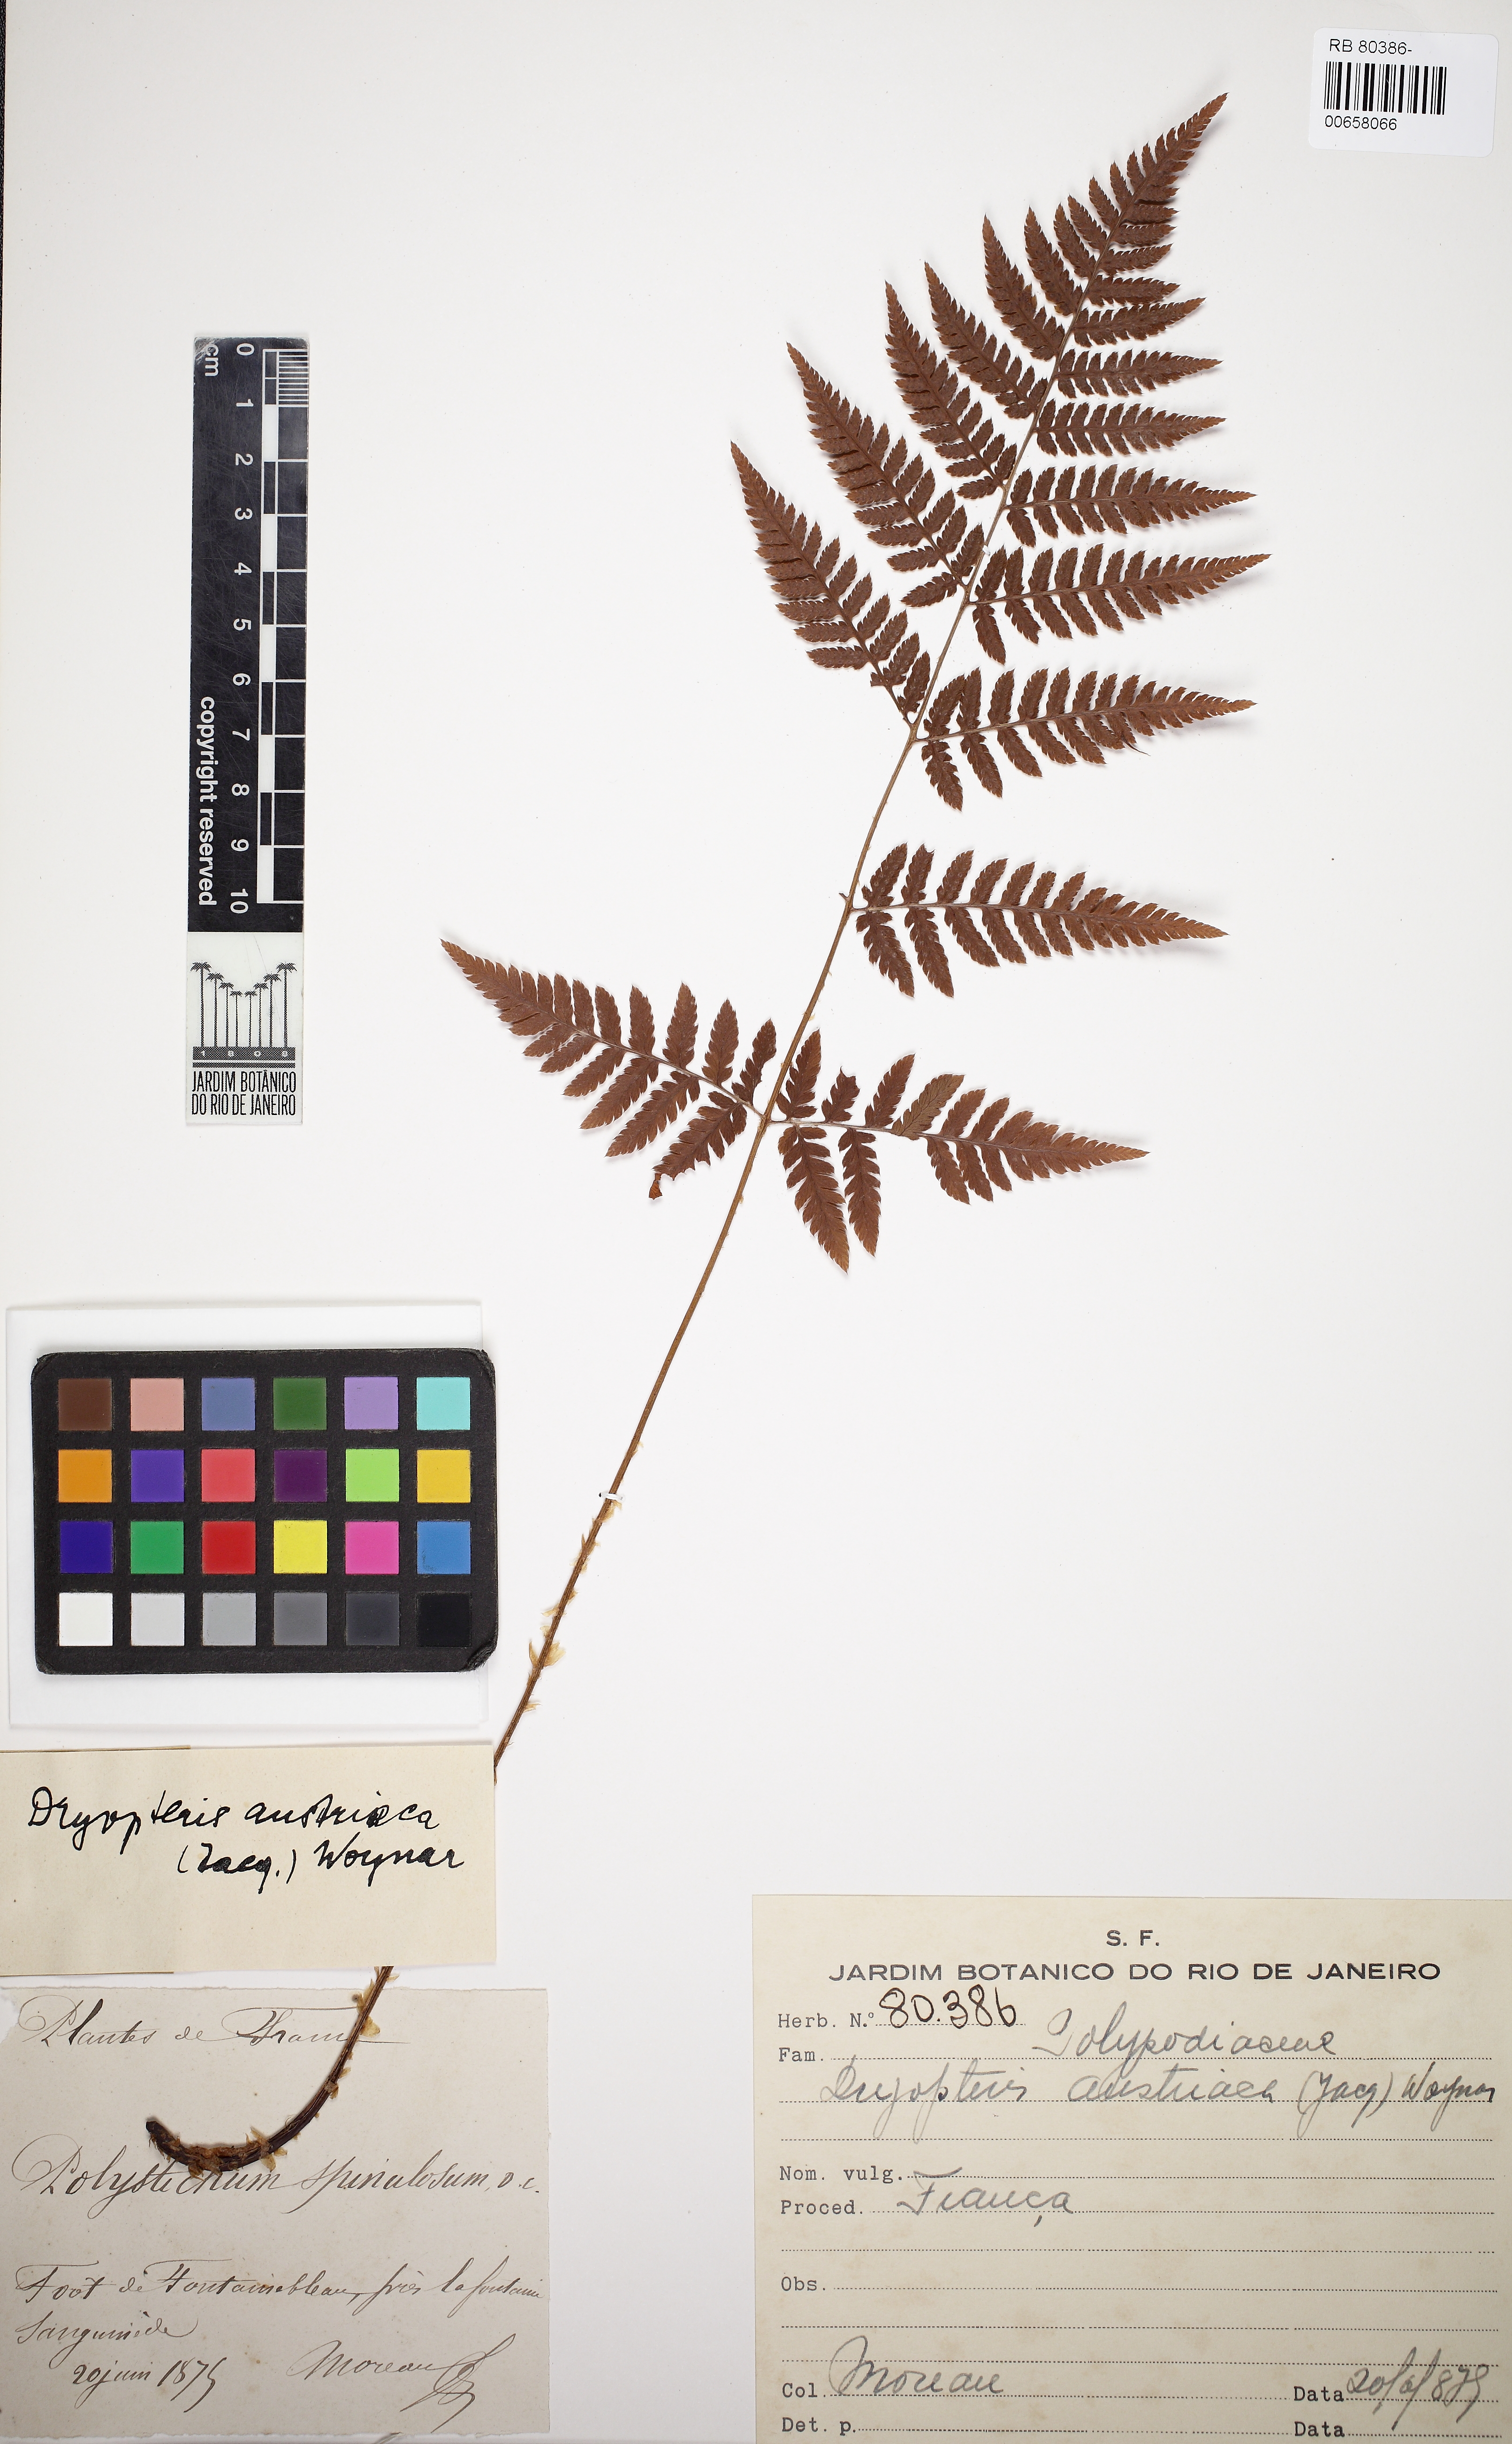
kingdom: Plantae
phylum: Tracheophyta
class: Polypodiopsida
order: Polypodiales
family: Dryopteridaceae
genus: Dryopteris
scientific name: Dryopteris dilatata
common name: Broad buckler-fern
